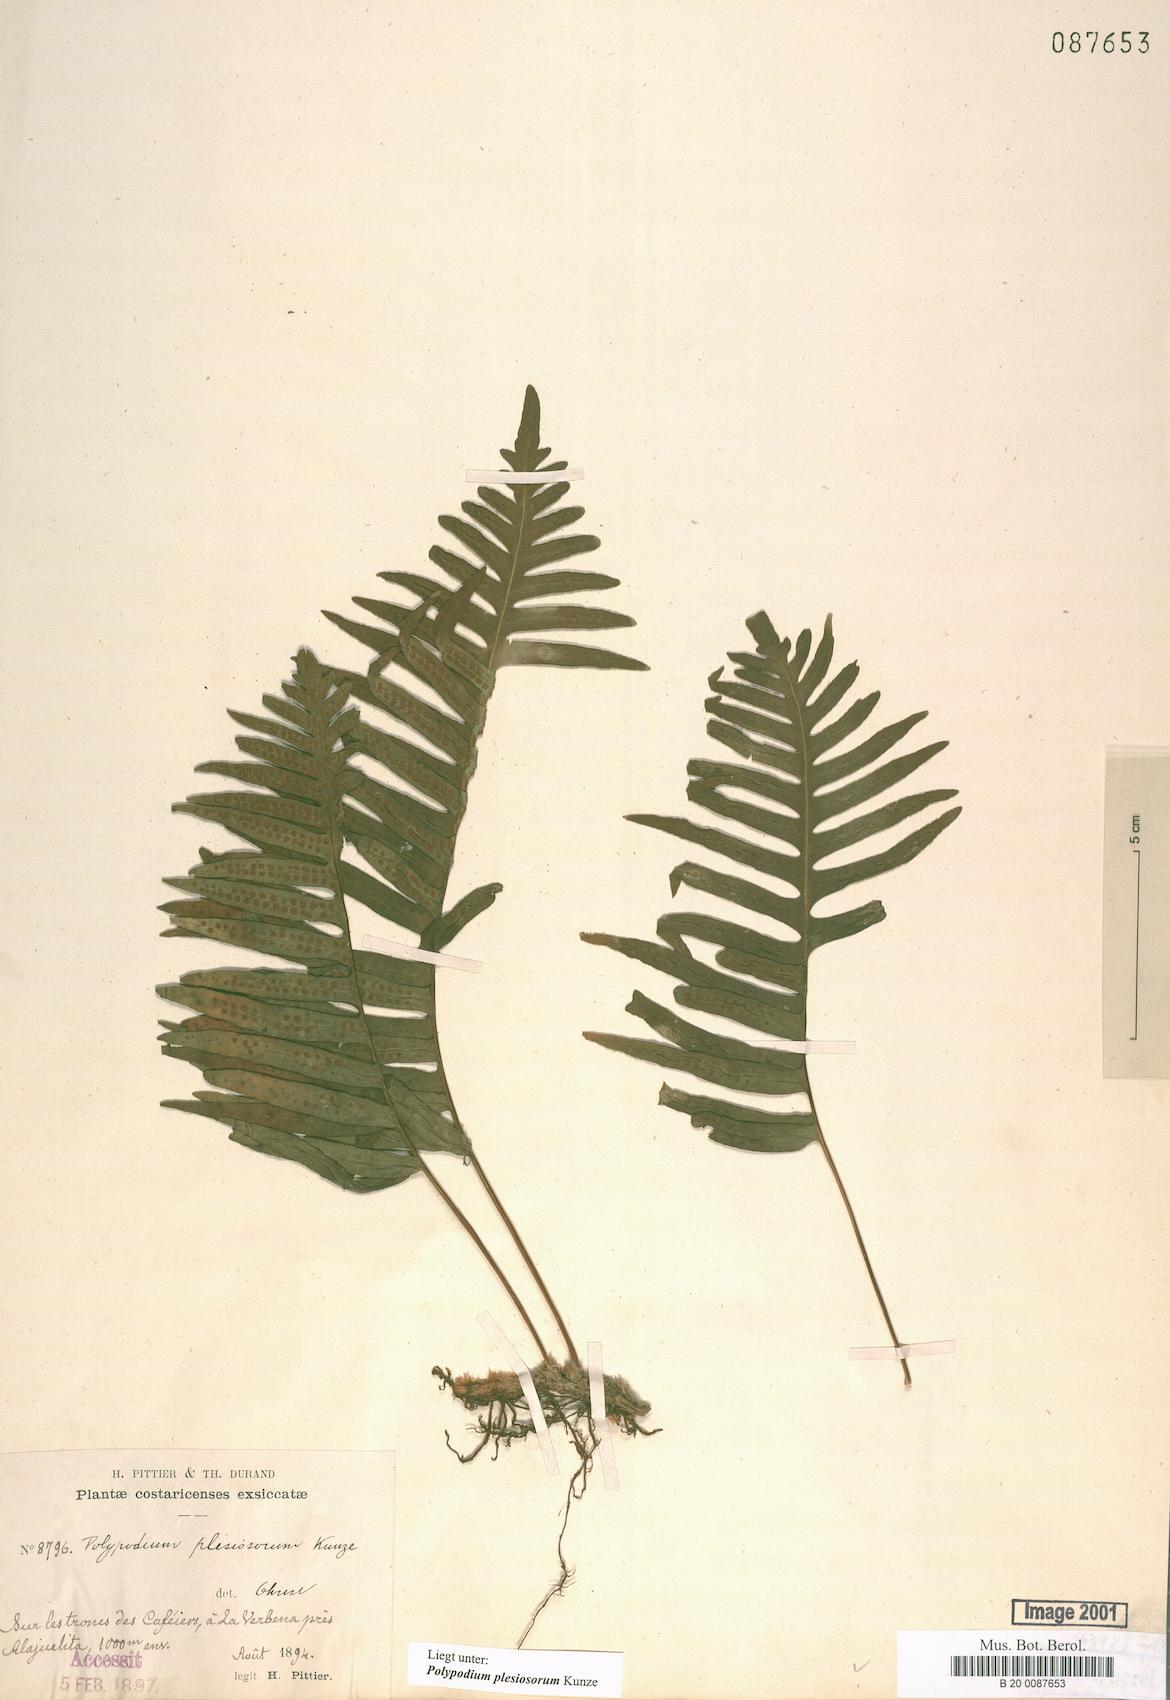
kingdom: Plantae
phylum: Tracheophyta
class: Polypodiopsida
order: Polypodiales
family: Polypodiaceae
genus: Polypodium
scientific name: Polypodium plesiosorum
